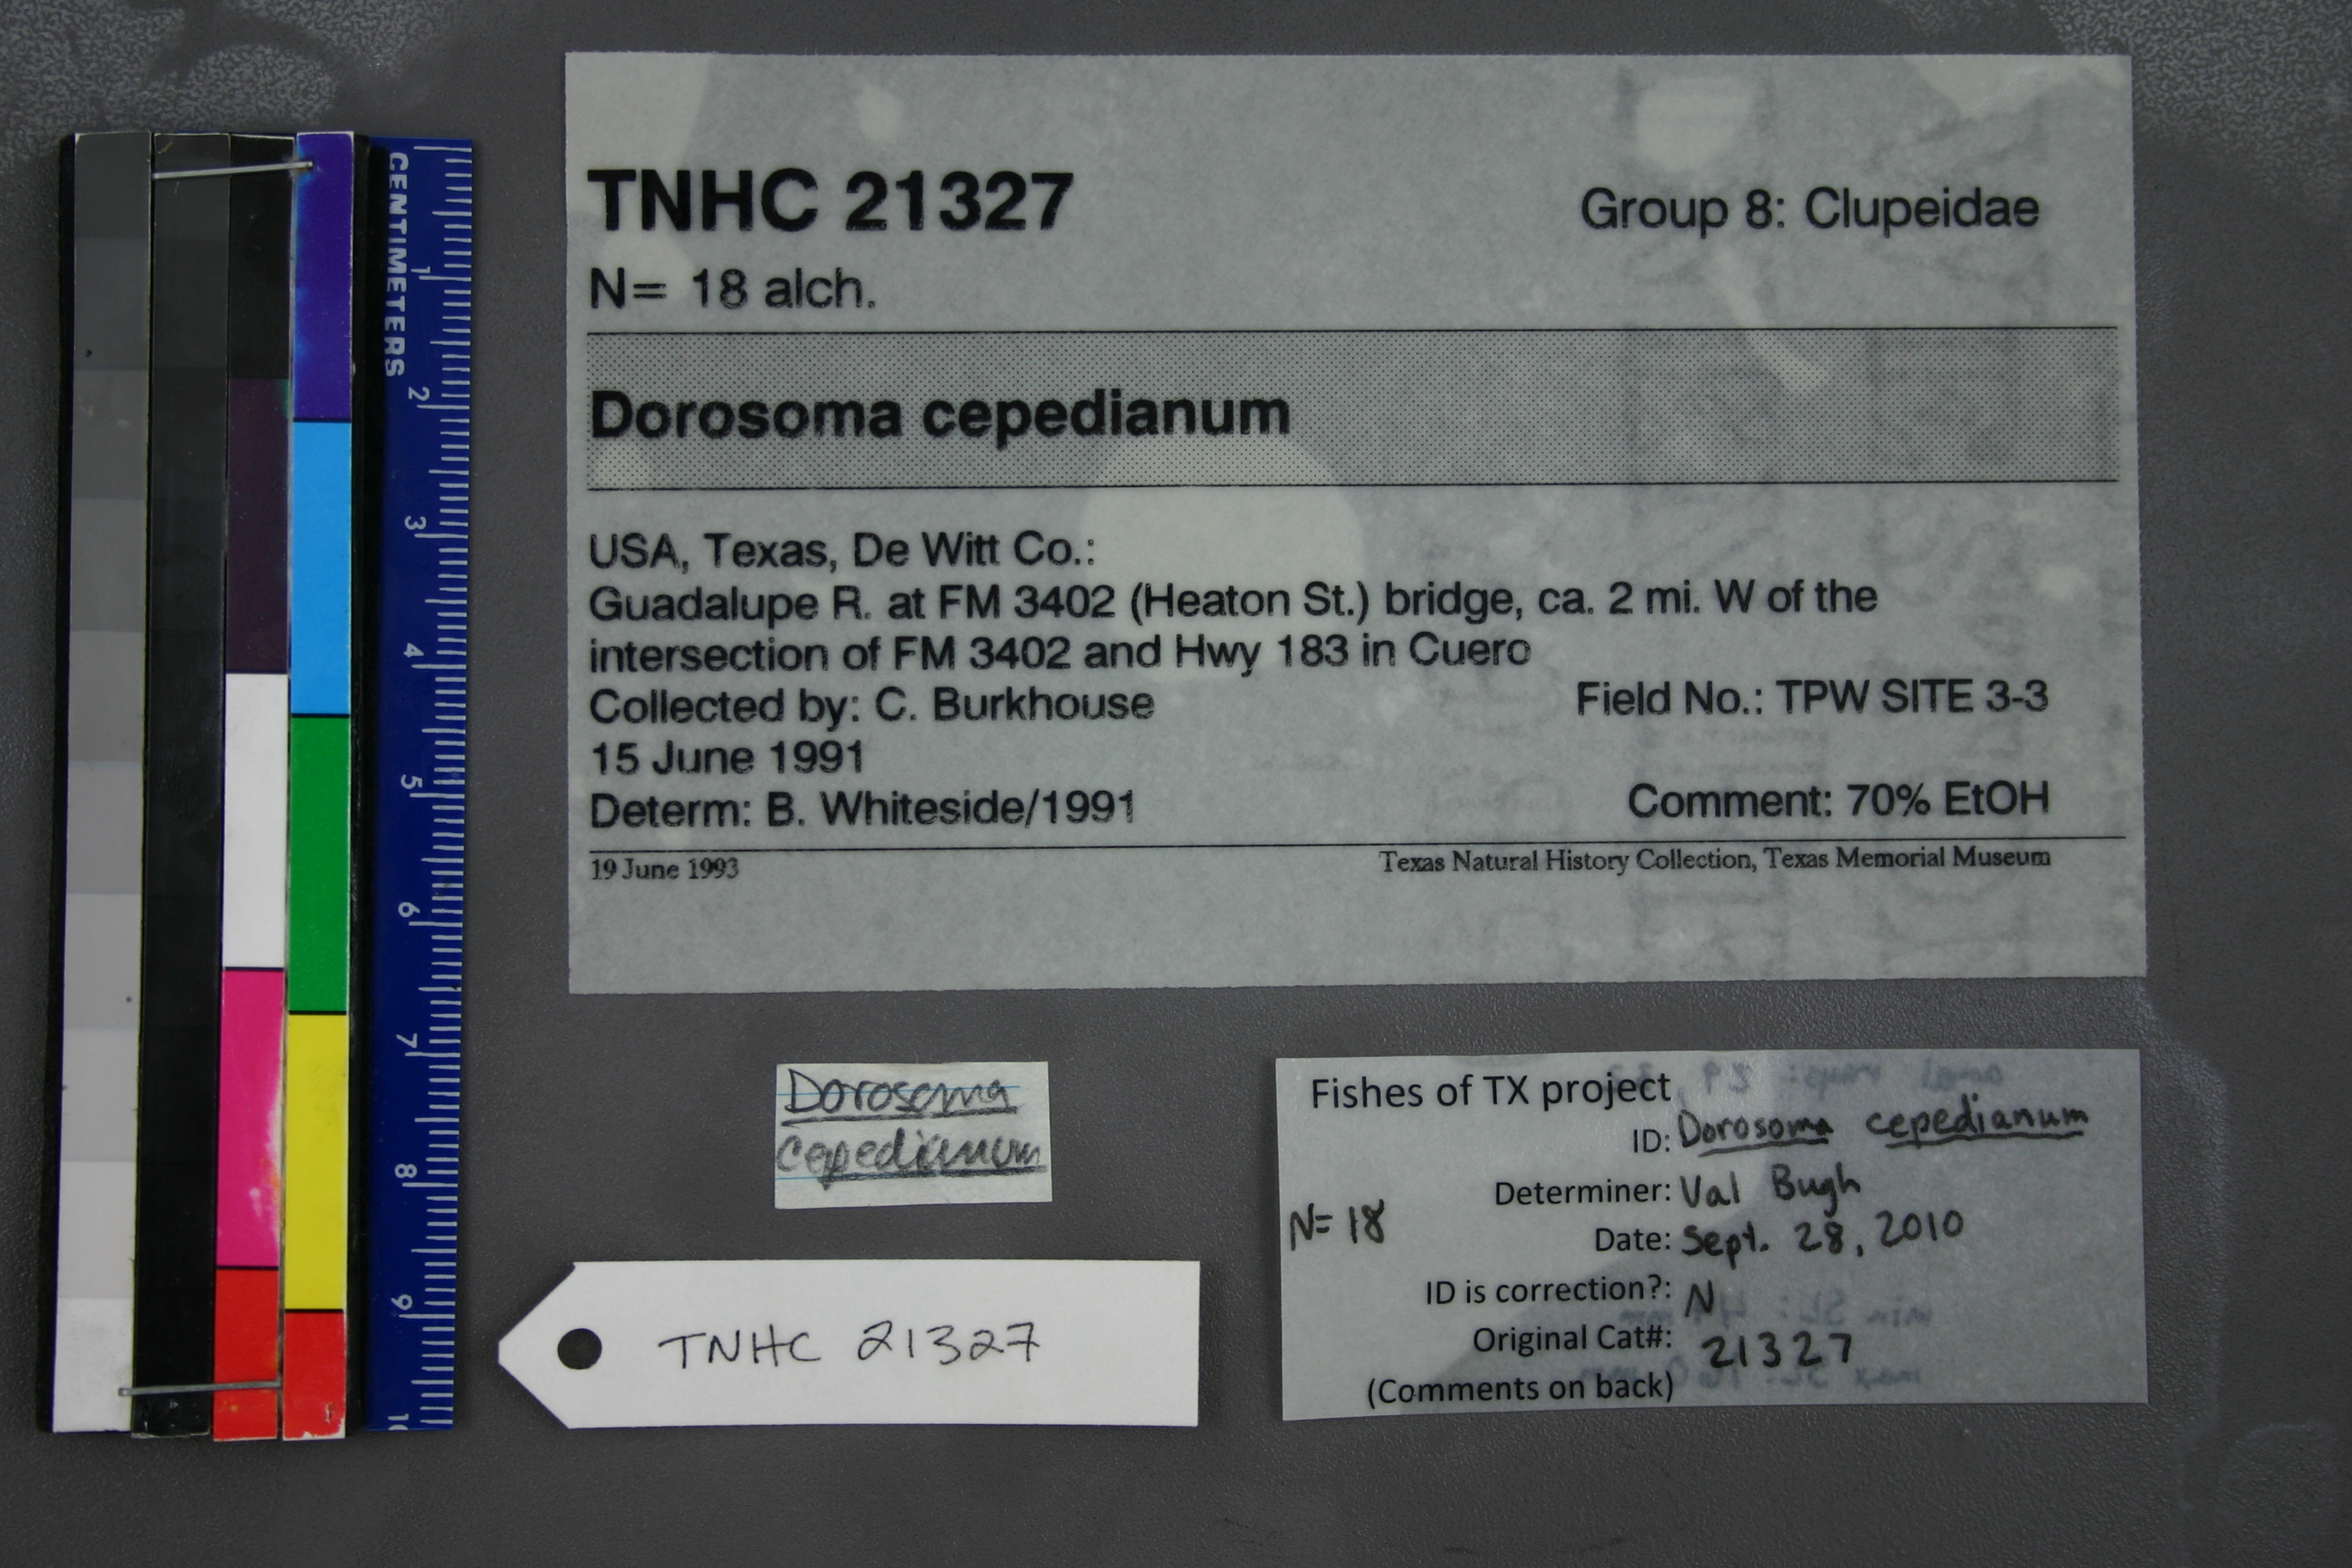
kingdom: Animalia
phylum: Chordata
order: Clupeiformes
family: Clupeidae
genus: Dorosoma
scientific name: Dorosoma cepedianum
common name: Gizzard shad
